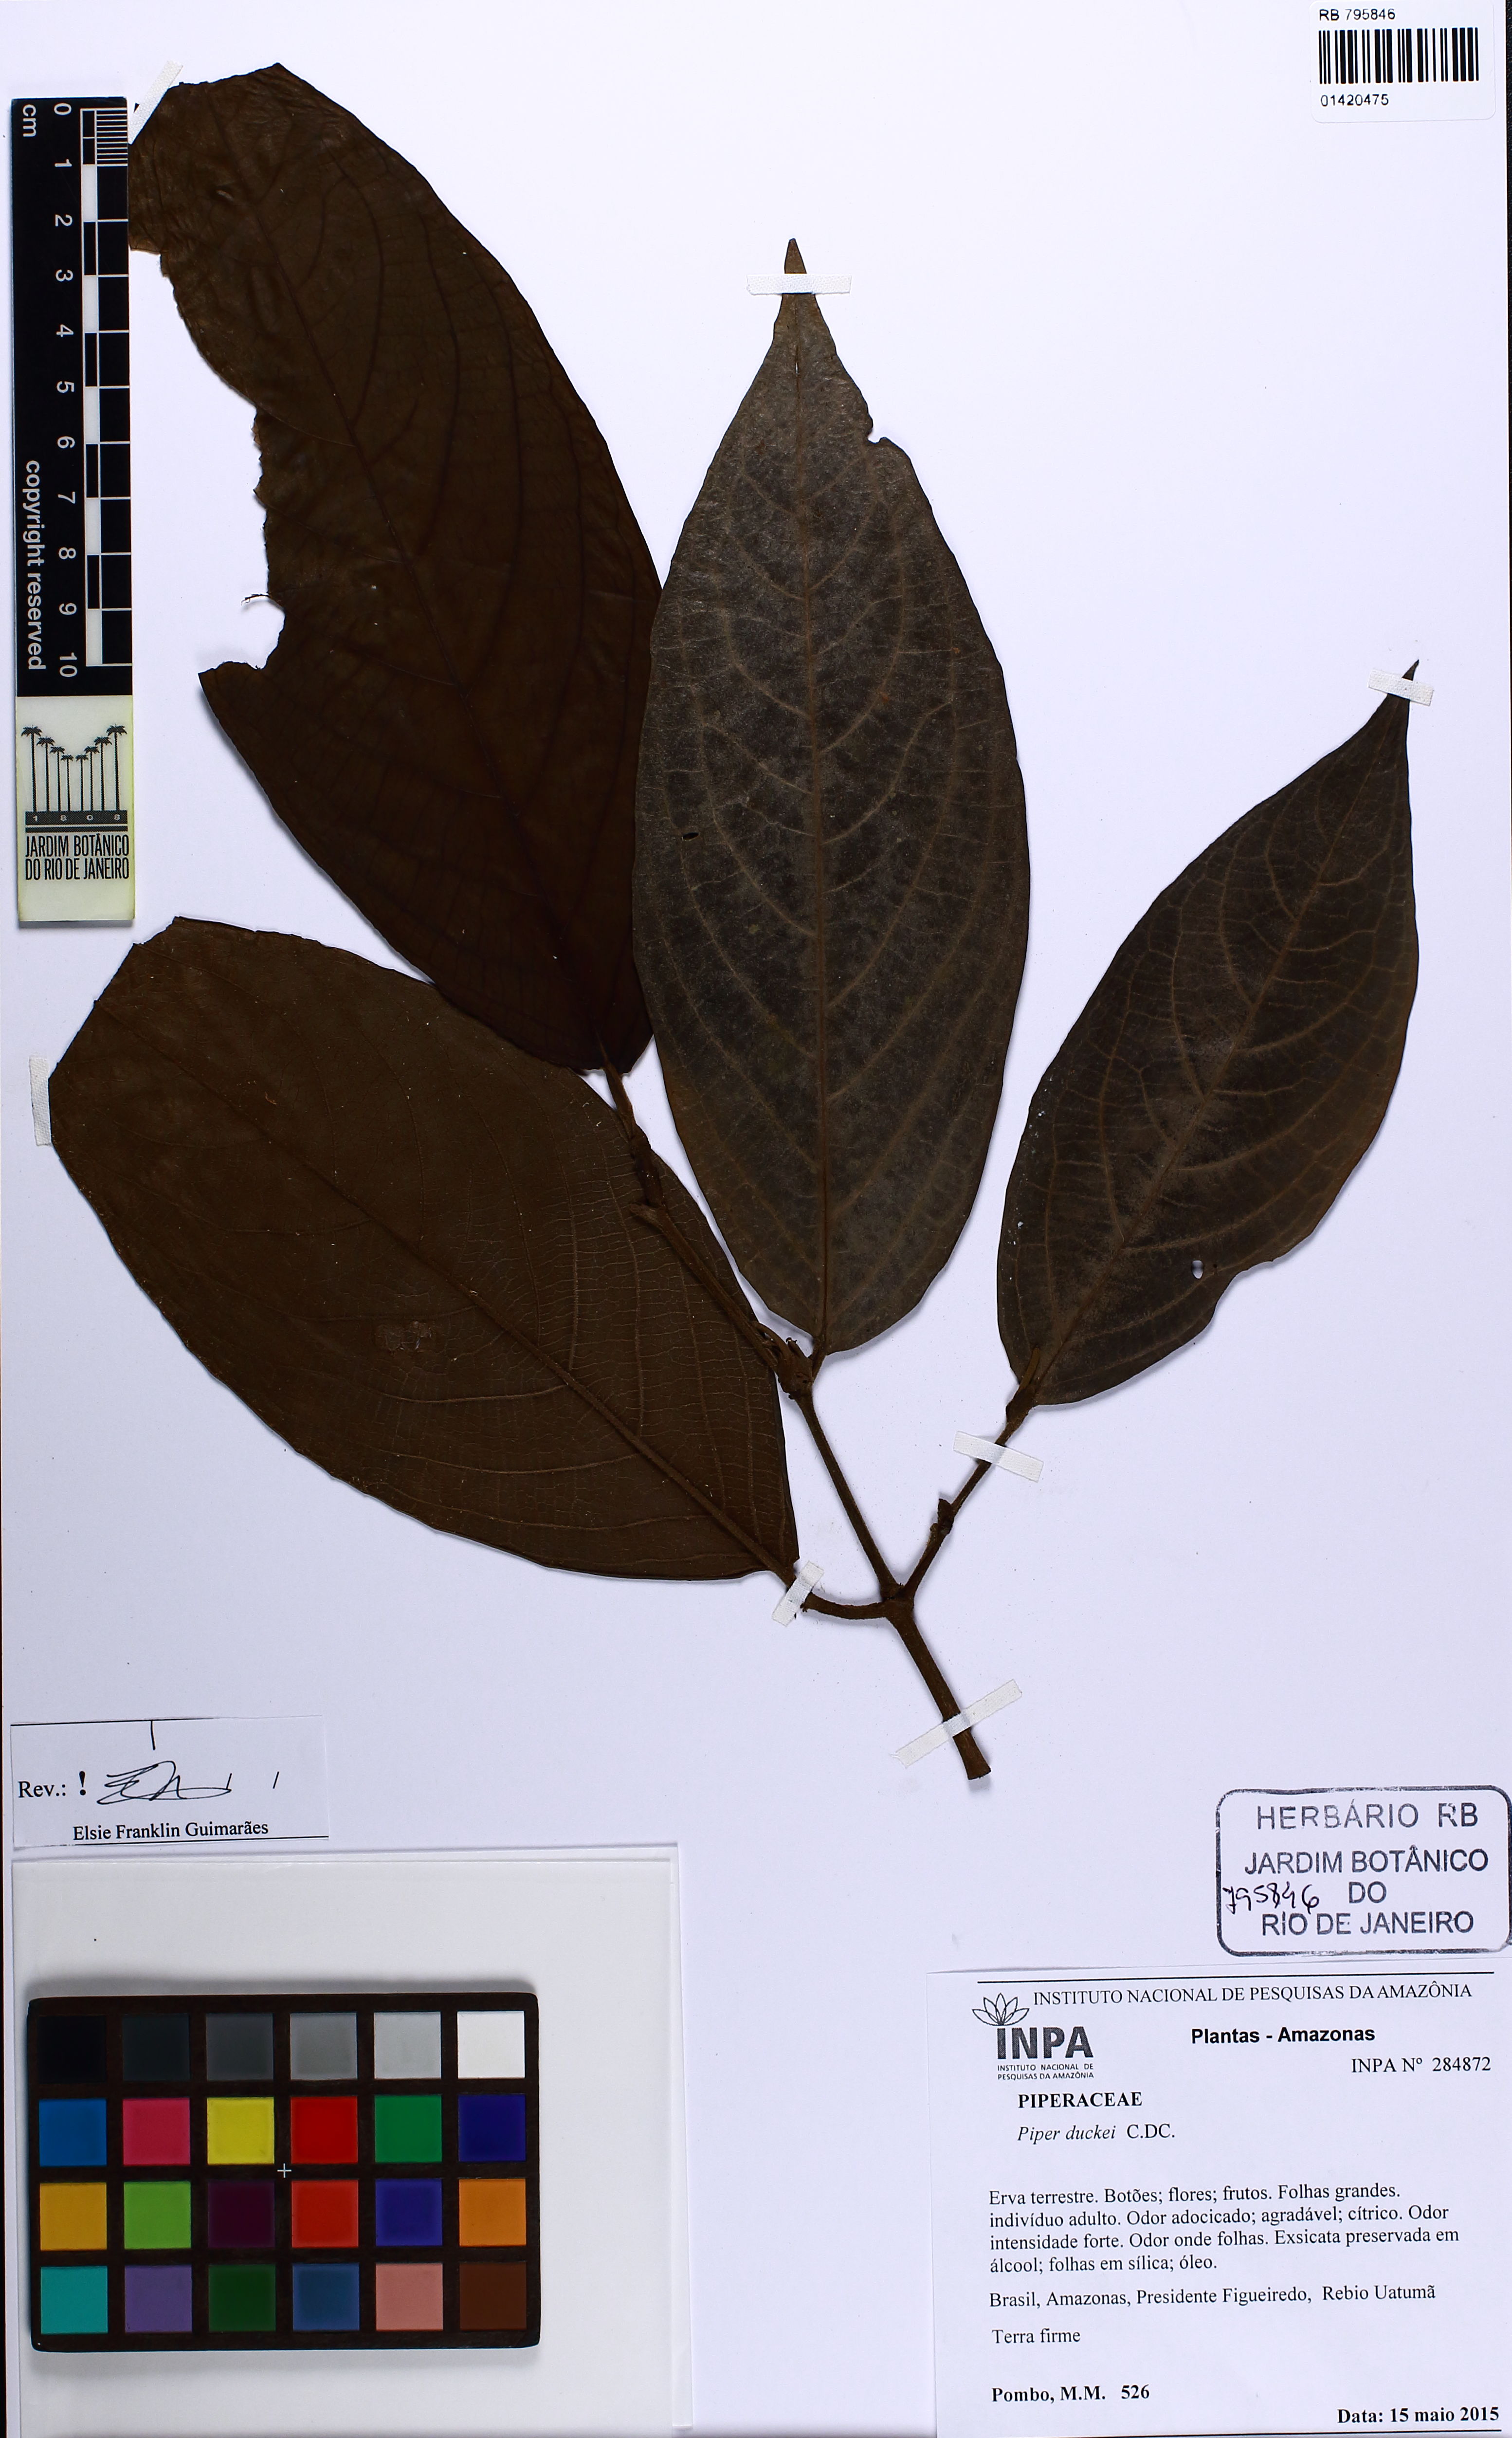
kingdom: Plantae
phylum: Tracheophyta
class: Magnoliopsida
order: Piperales
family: Piperaceae
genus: Piper
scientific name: Piper duckei
